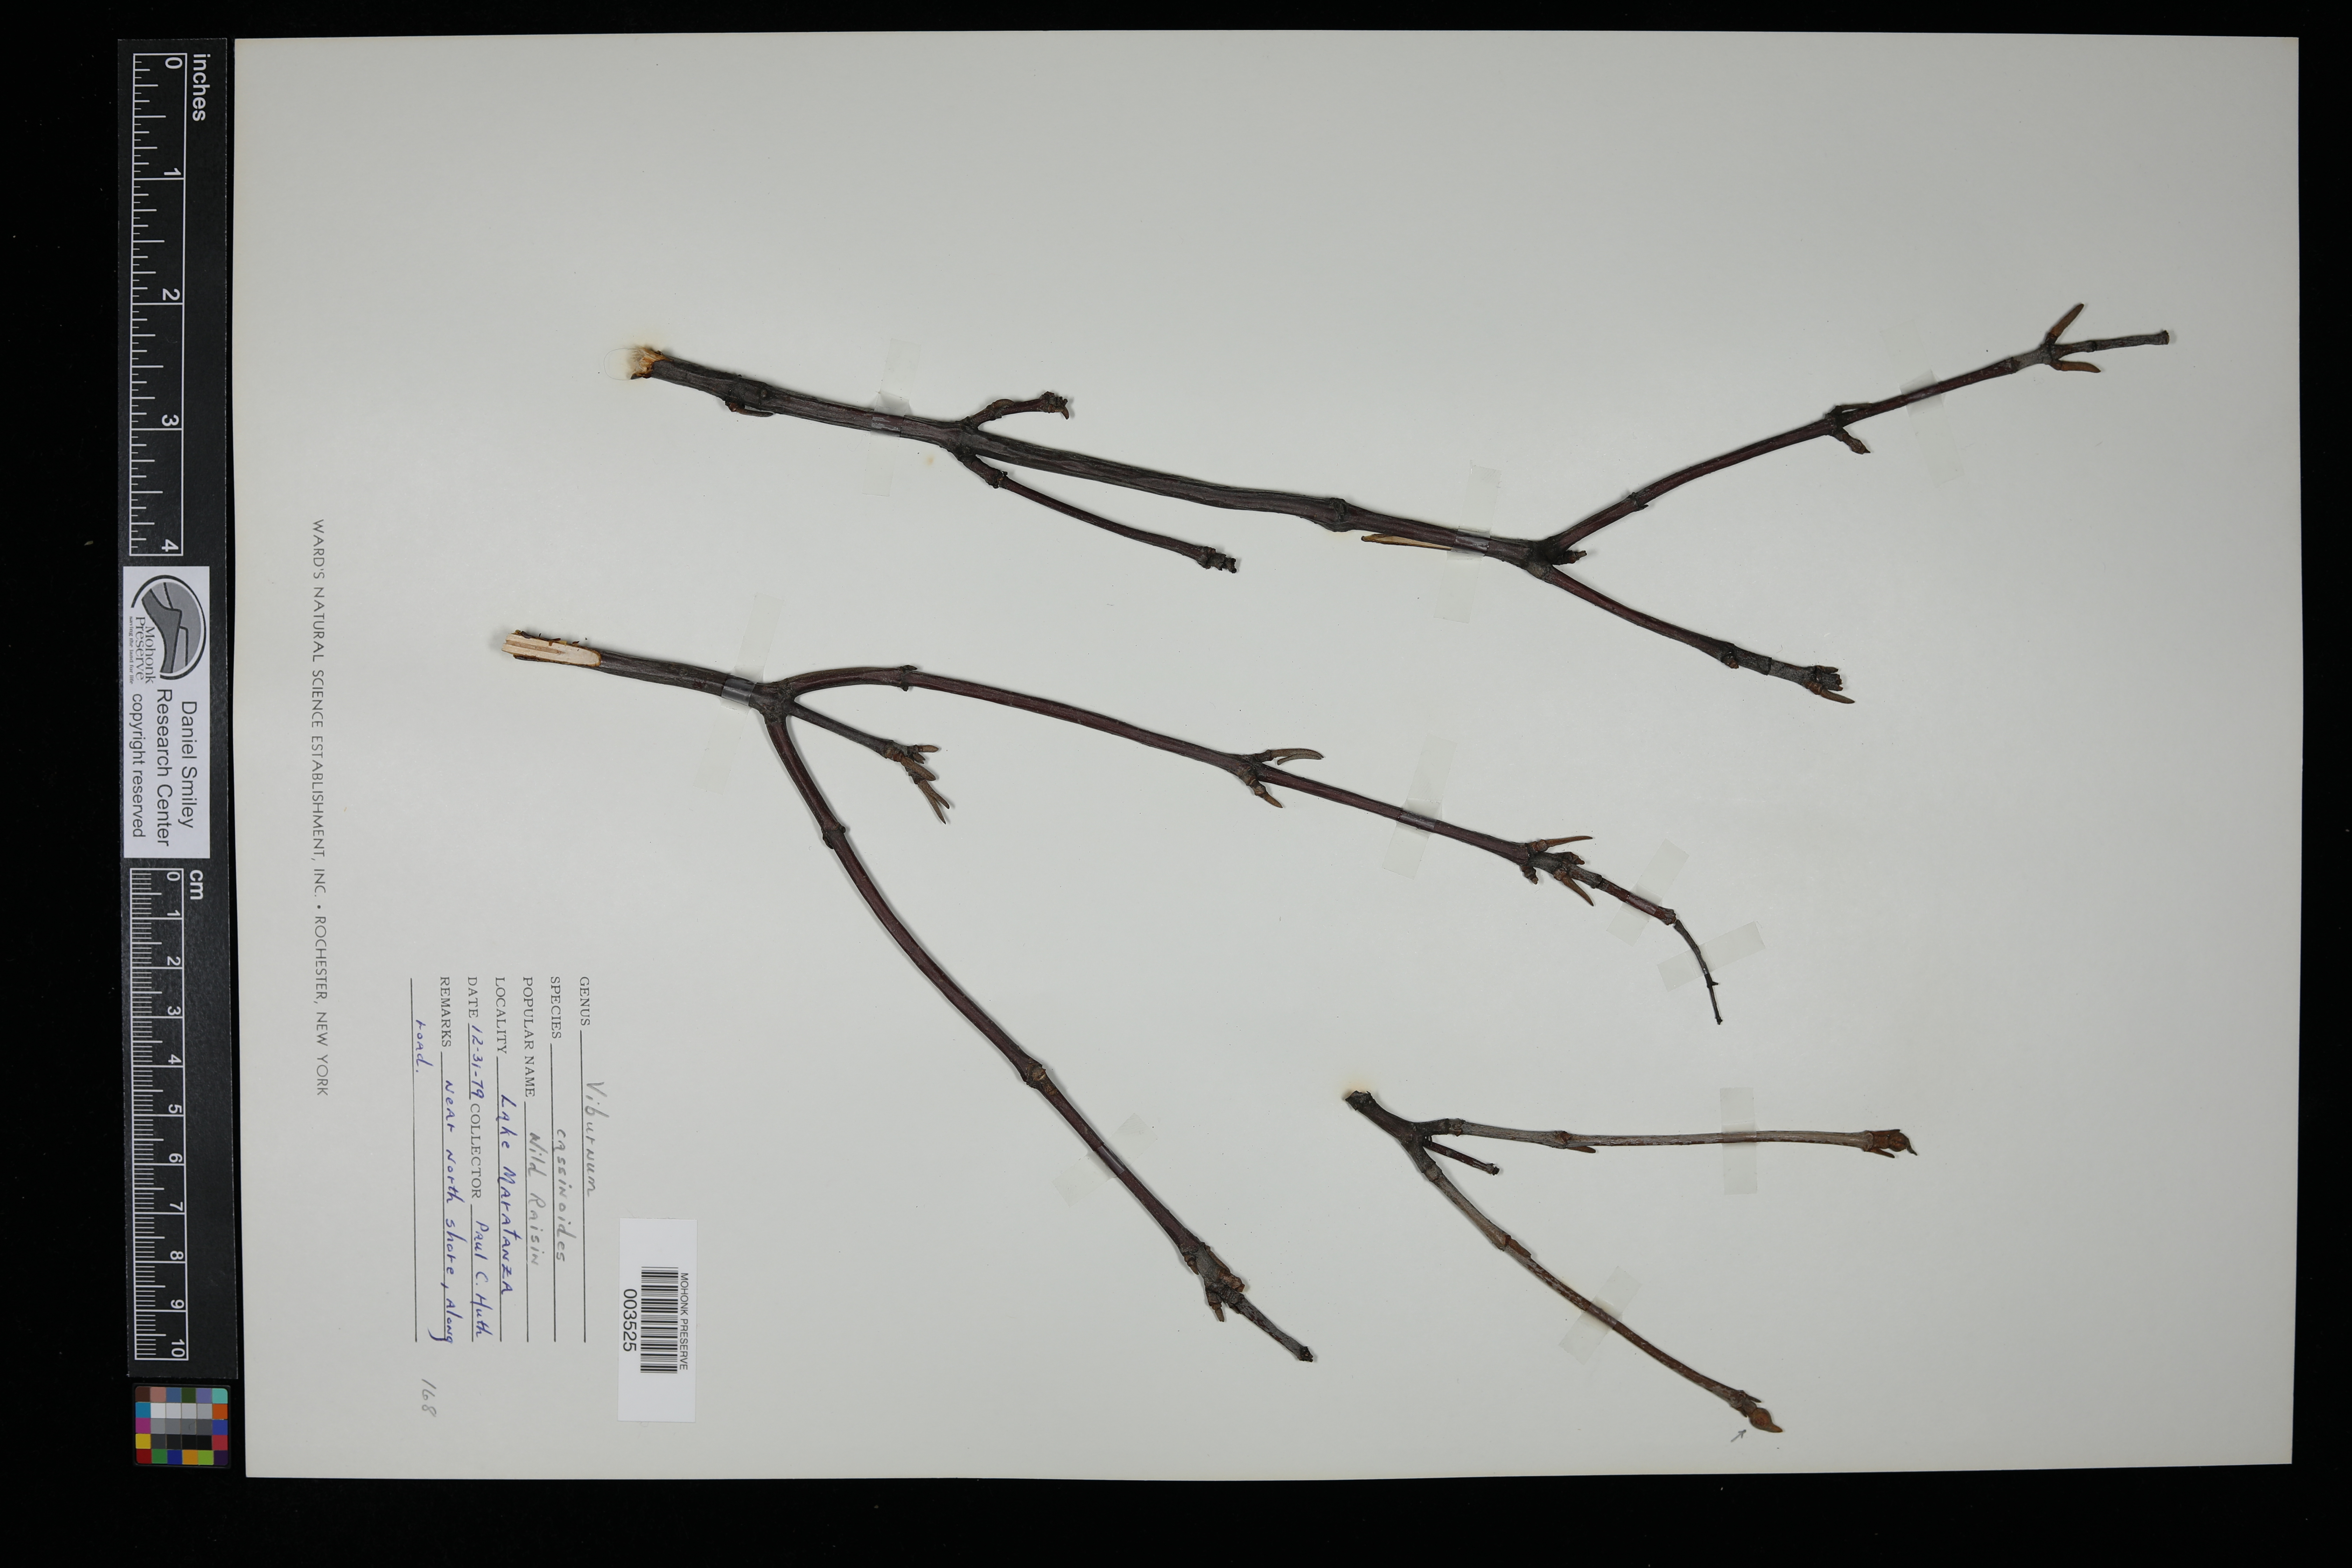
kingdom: Plantae
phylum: Tracheophyta
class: Magnoliopsida
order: Dipsacales
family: Viburnaceae
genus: Viburnum
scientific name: Viburnum cassinoides
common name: Swamp haw
